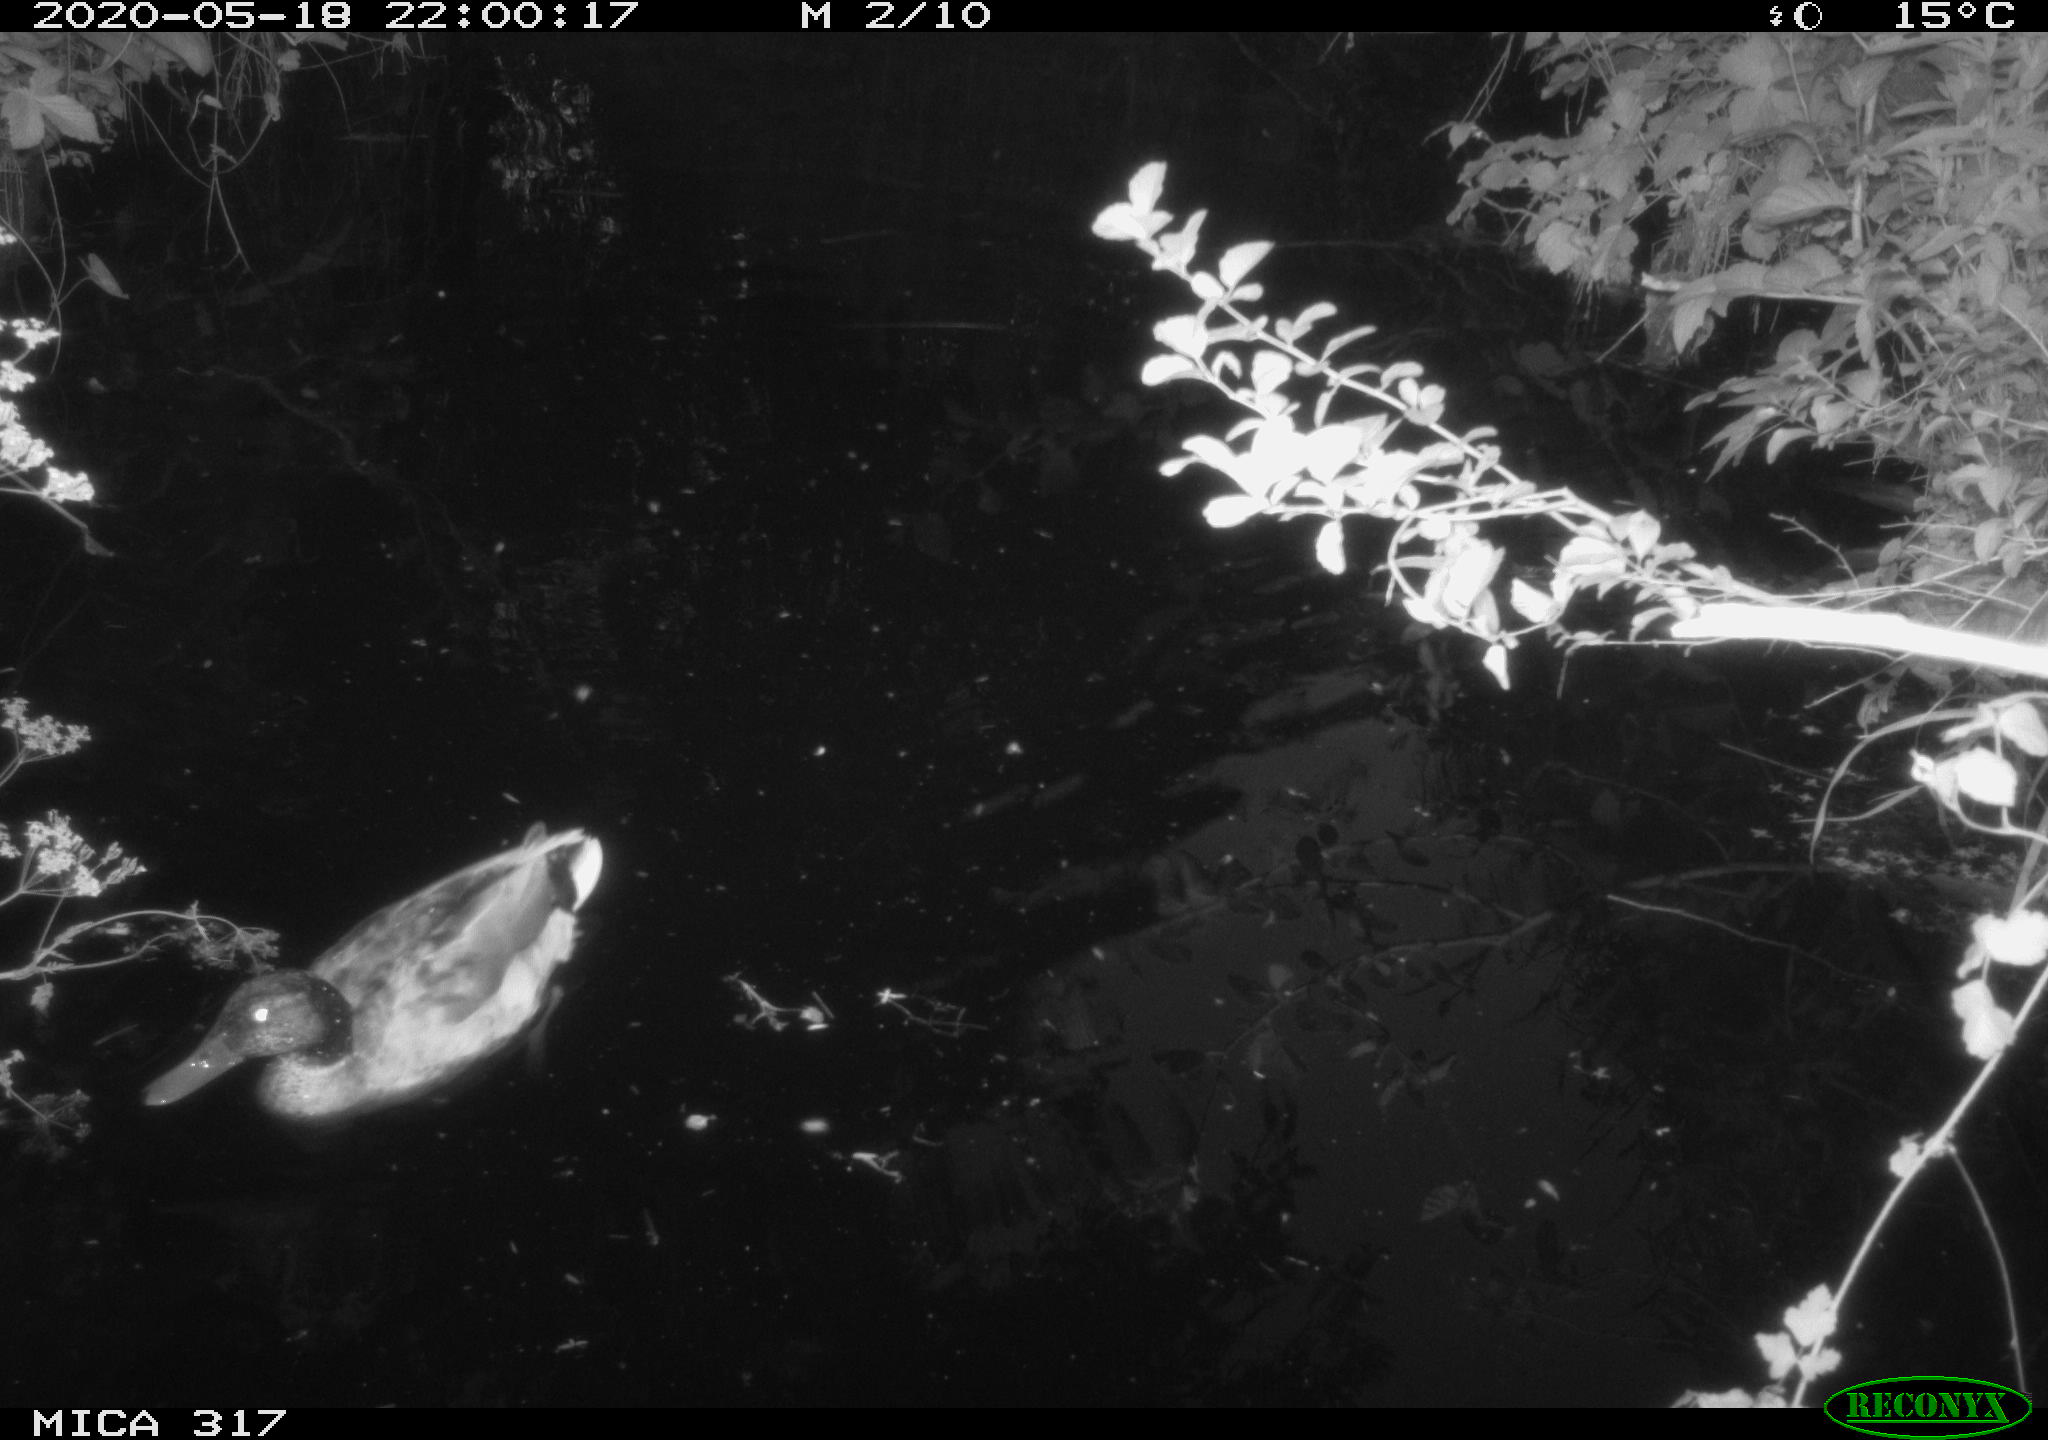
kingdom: Animalia
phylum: Chordata
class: Aves
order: Anseriformes
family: Anatidae
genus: Anas
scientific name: Anas platyrhynchos
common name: Mallard
